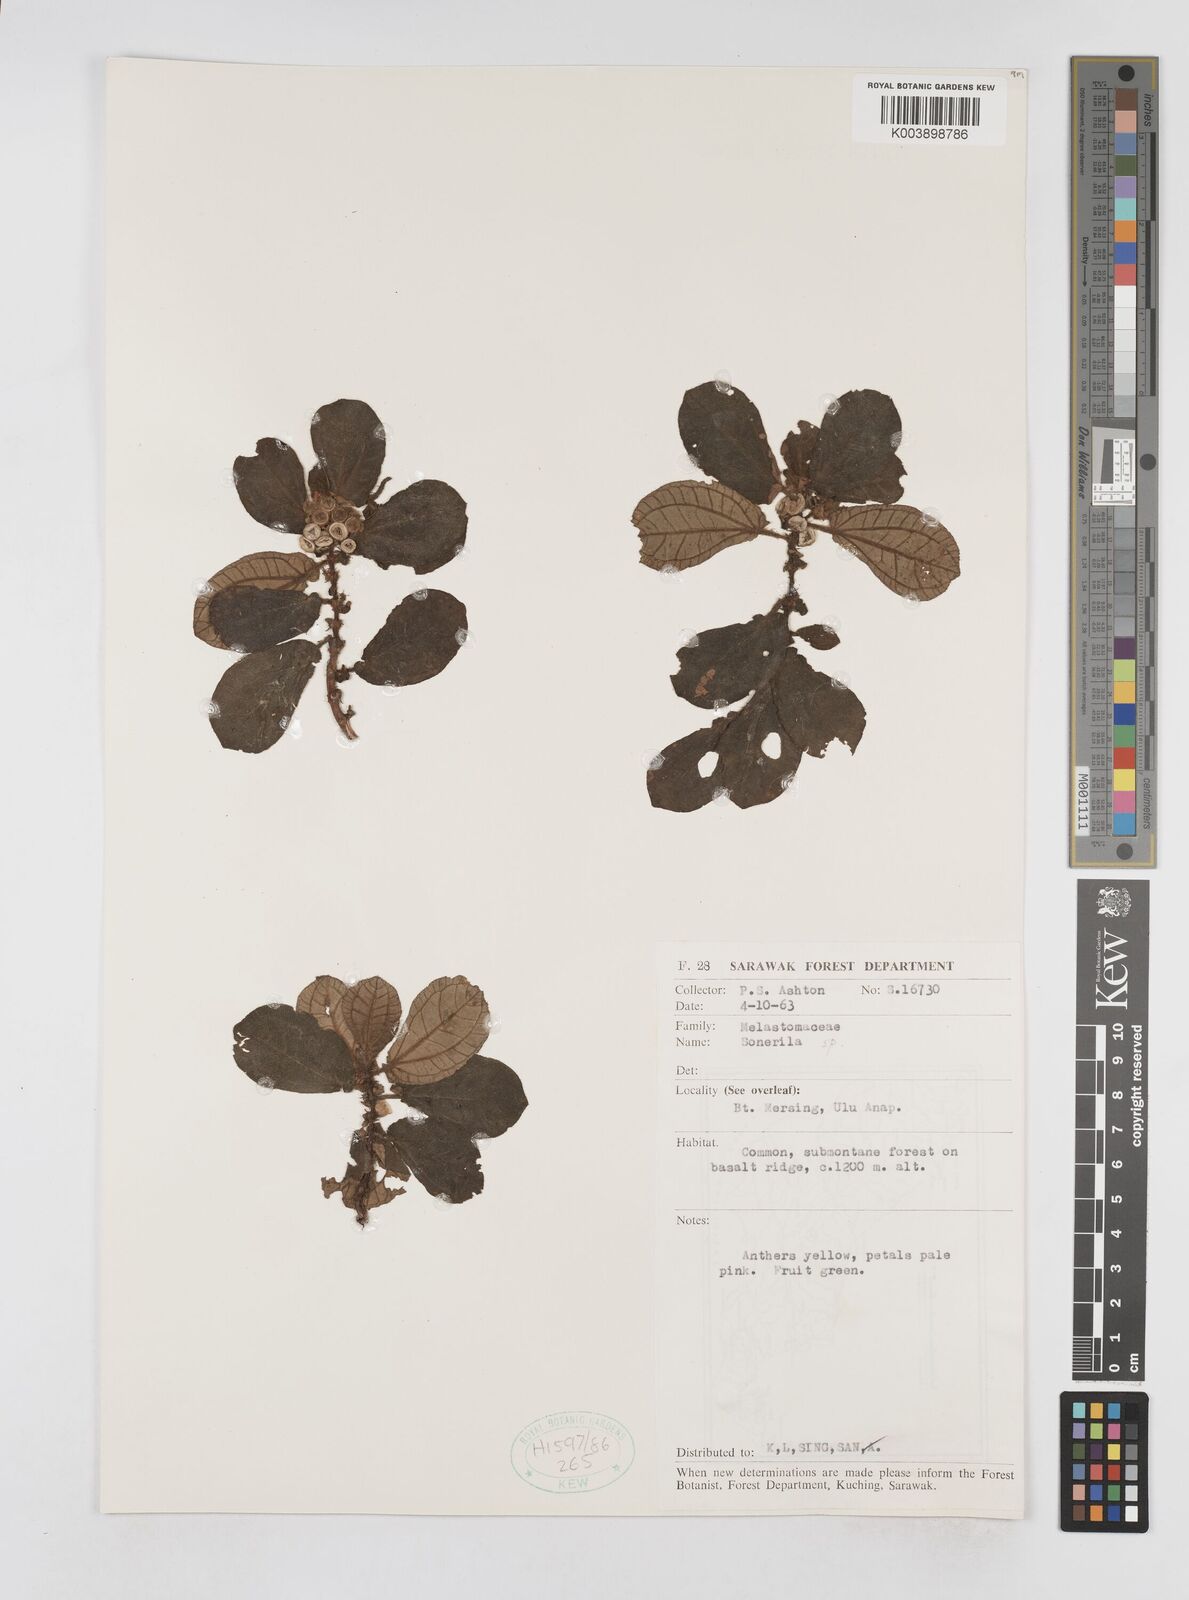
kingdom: Plantae
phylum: Tracheophyta
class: Magnoliopsida
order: Myrtales
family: Melastomataceae
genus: Sonerila
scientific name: Sonerila
